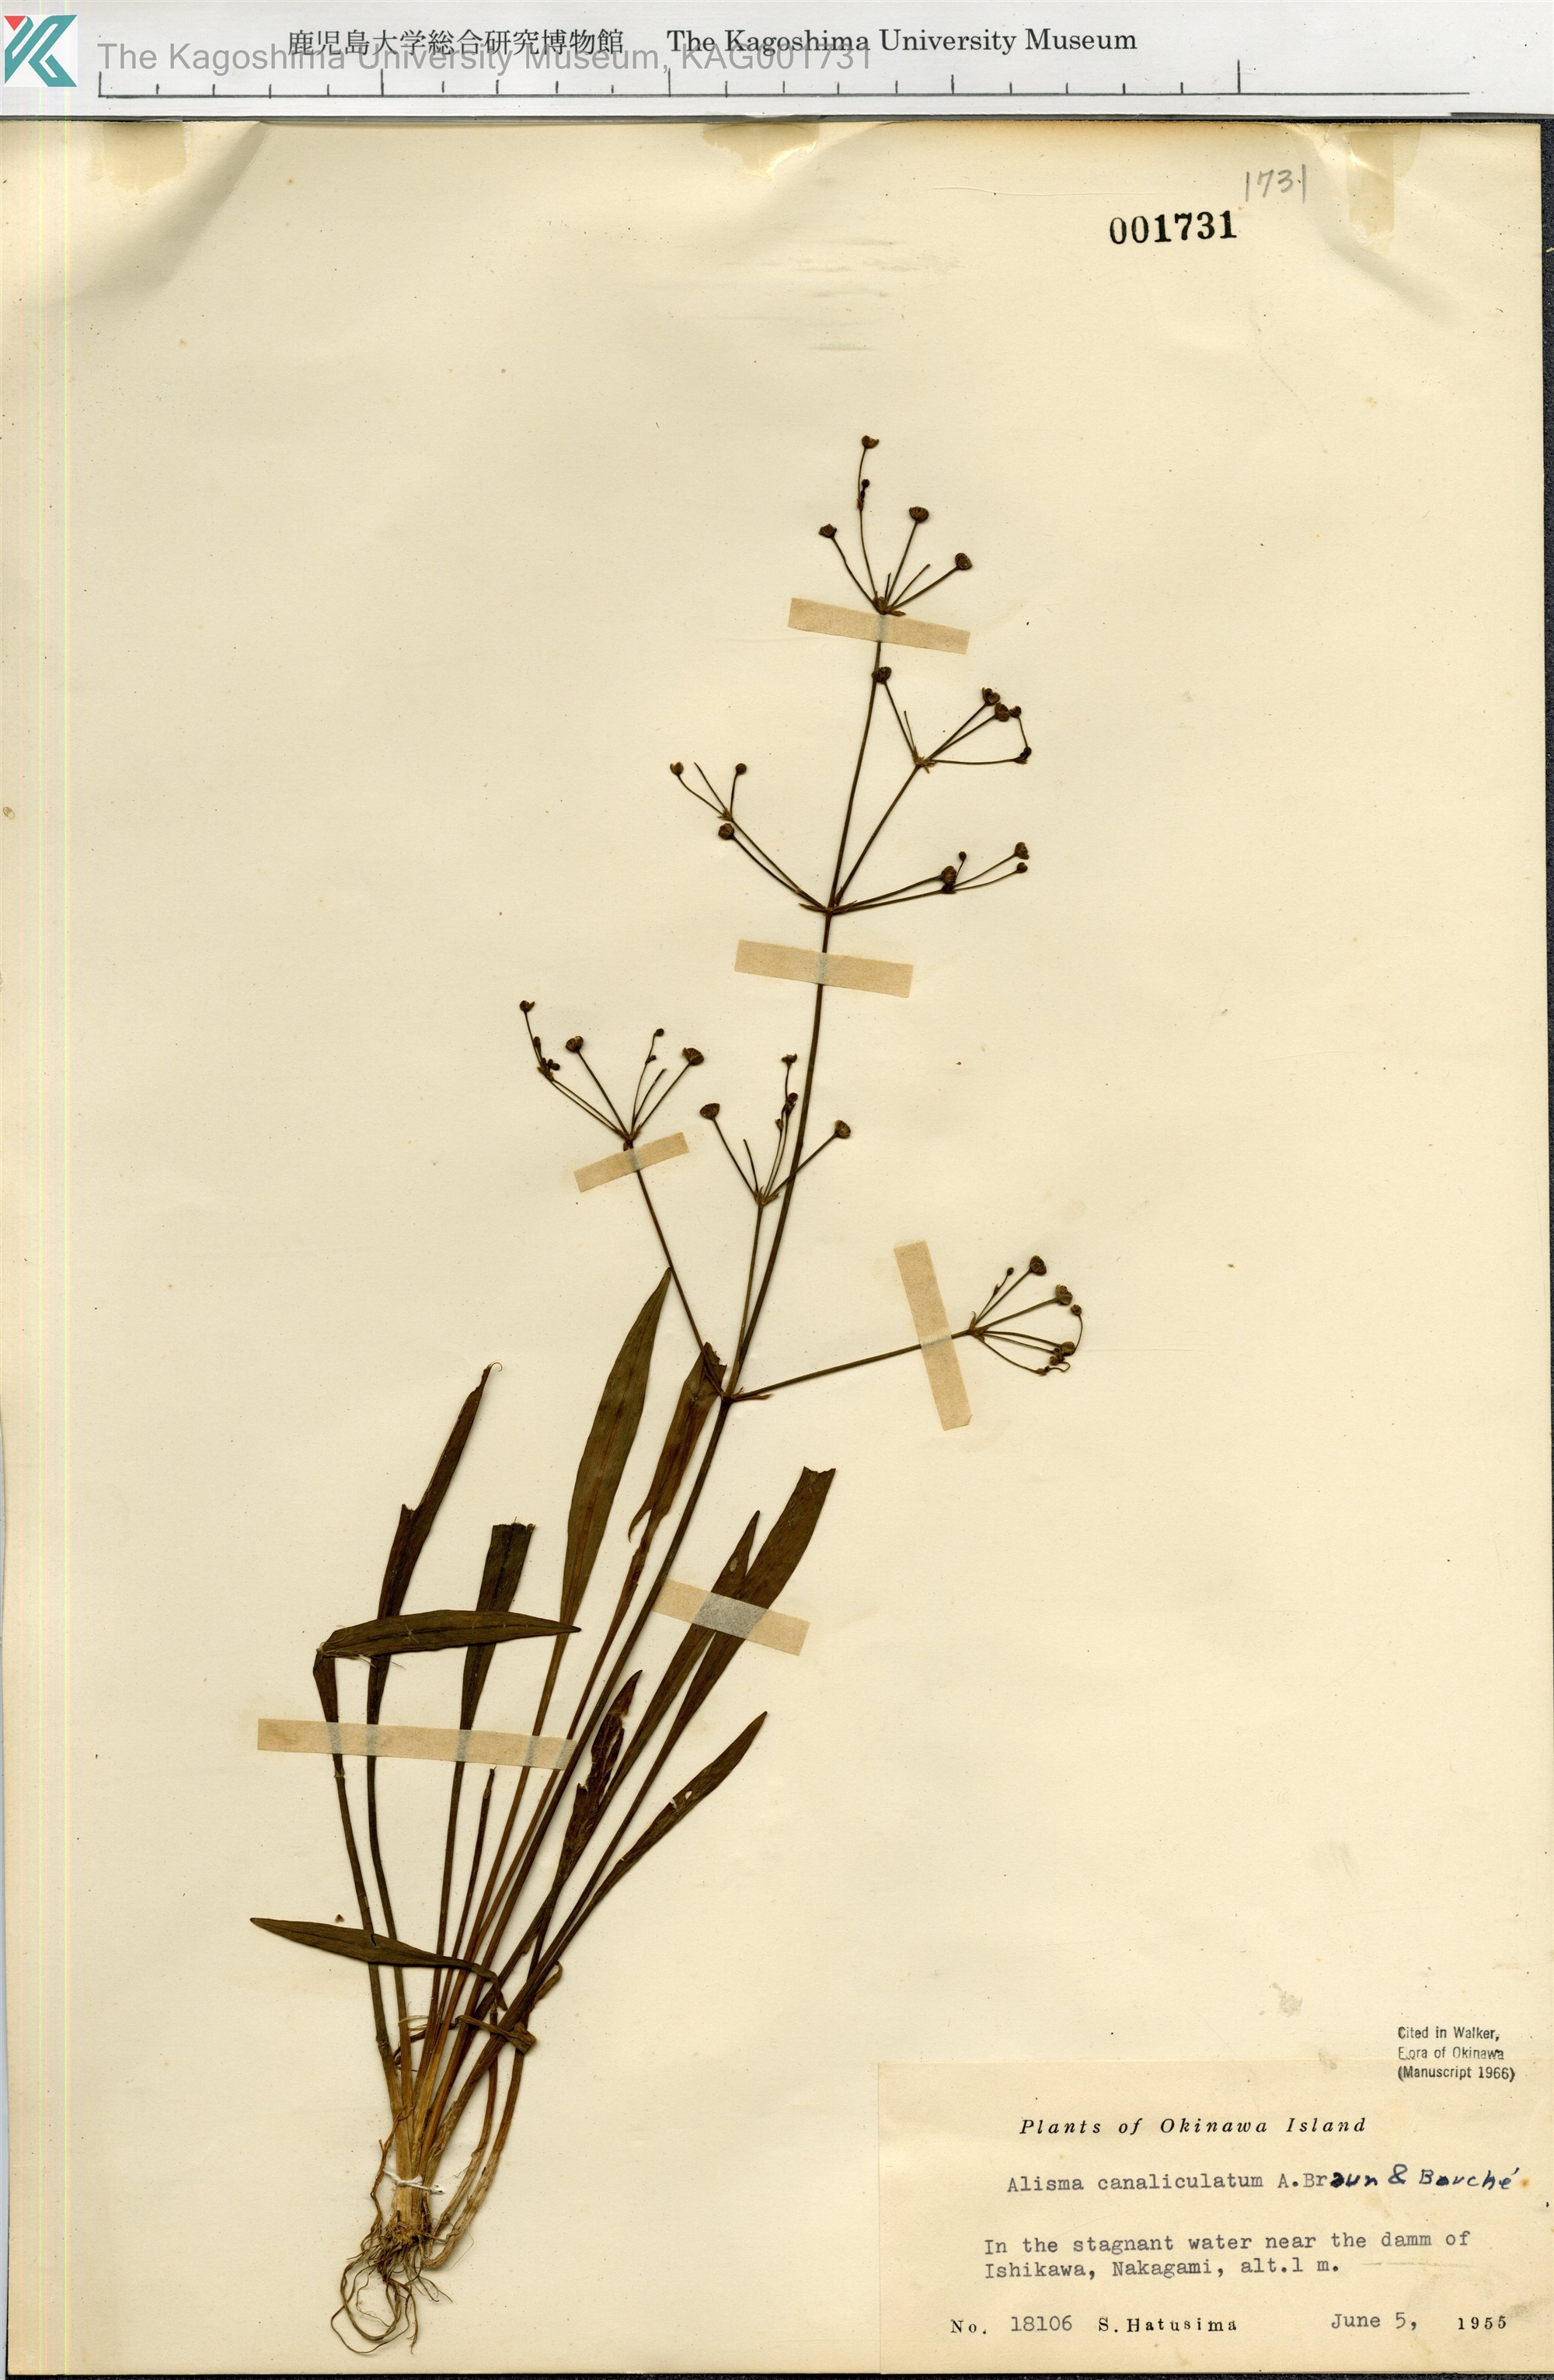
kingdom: Plantae
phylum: Tracheophyta
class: Liliopsida
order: Alismatales
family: Alismataceae
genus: Alisma
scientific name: Alisma canaliculatum
